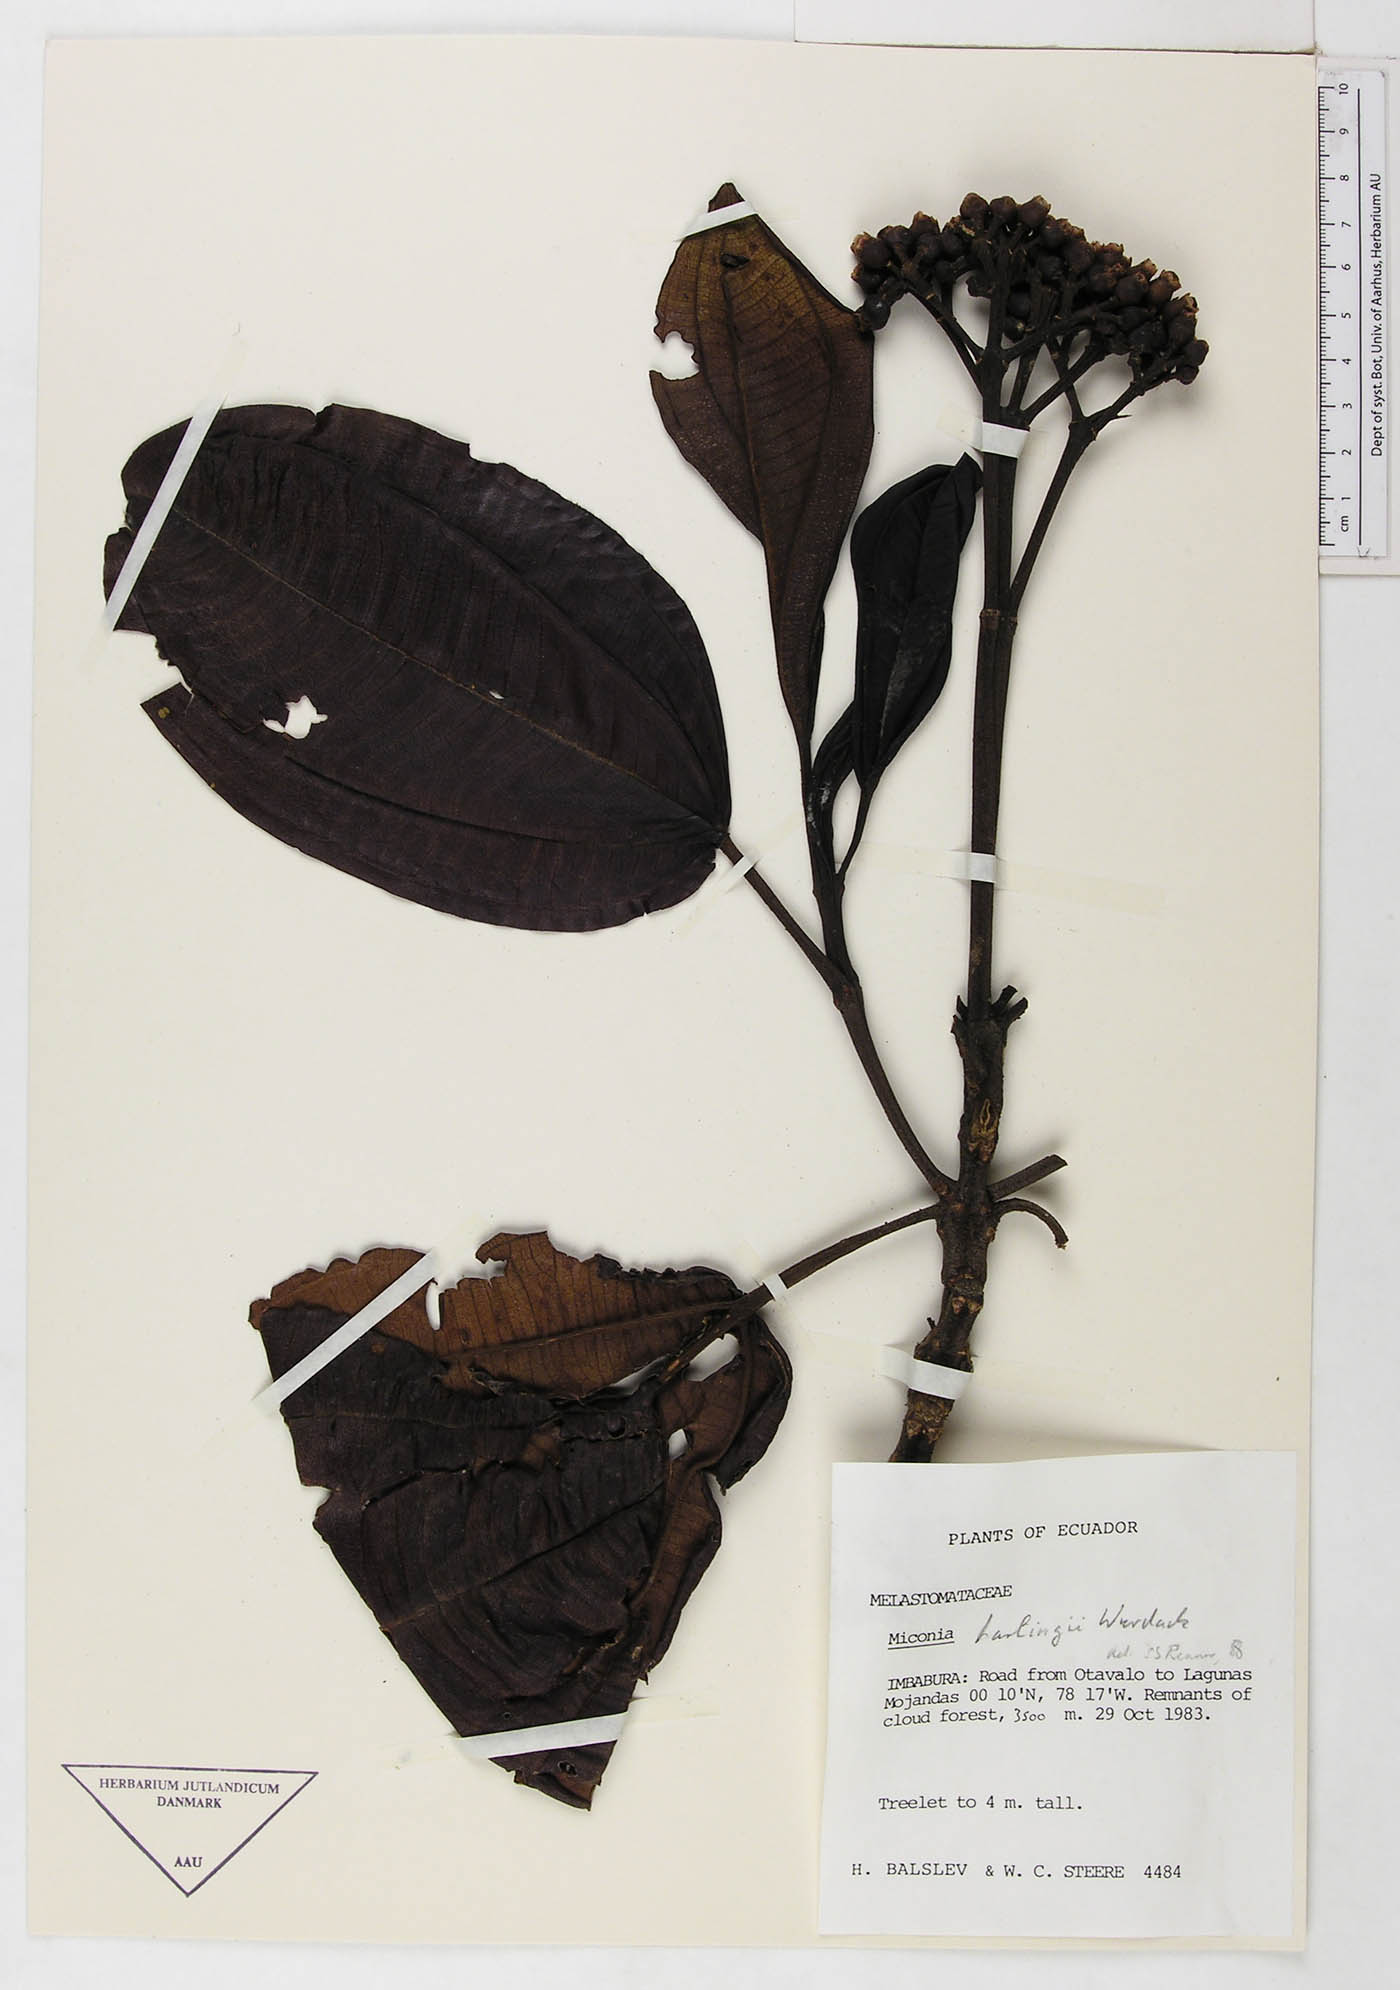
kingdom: Plantae
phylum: Tracheophyta
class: Magnoliopsida
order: Myrtales
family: Melastomataceae
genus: Miconia
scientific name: Miconia corymbiformis
